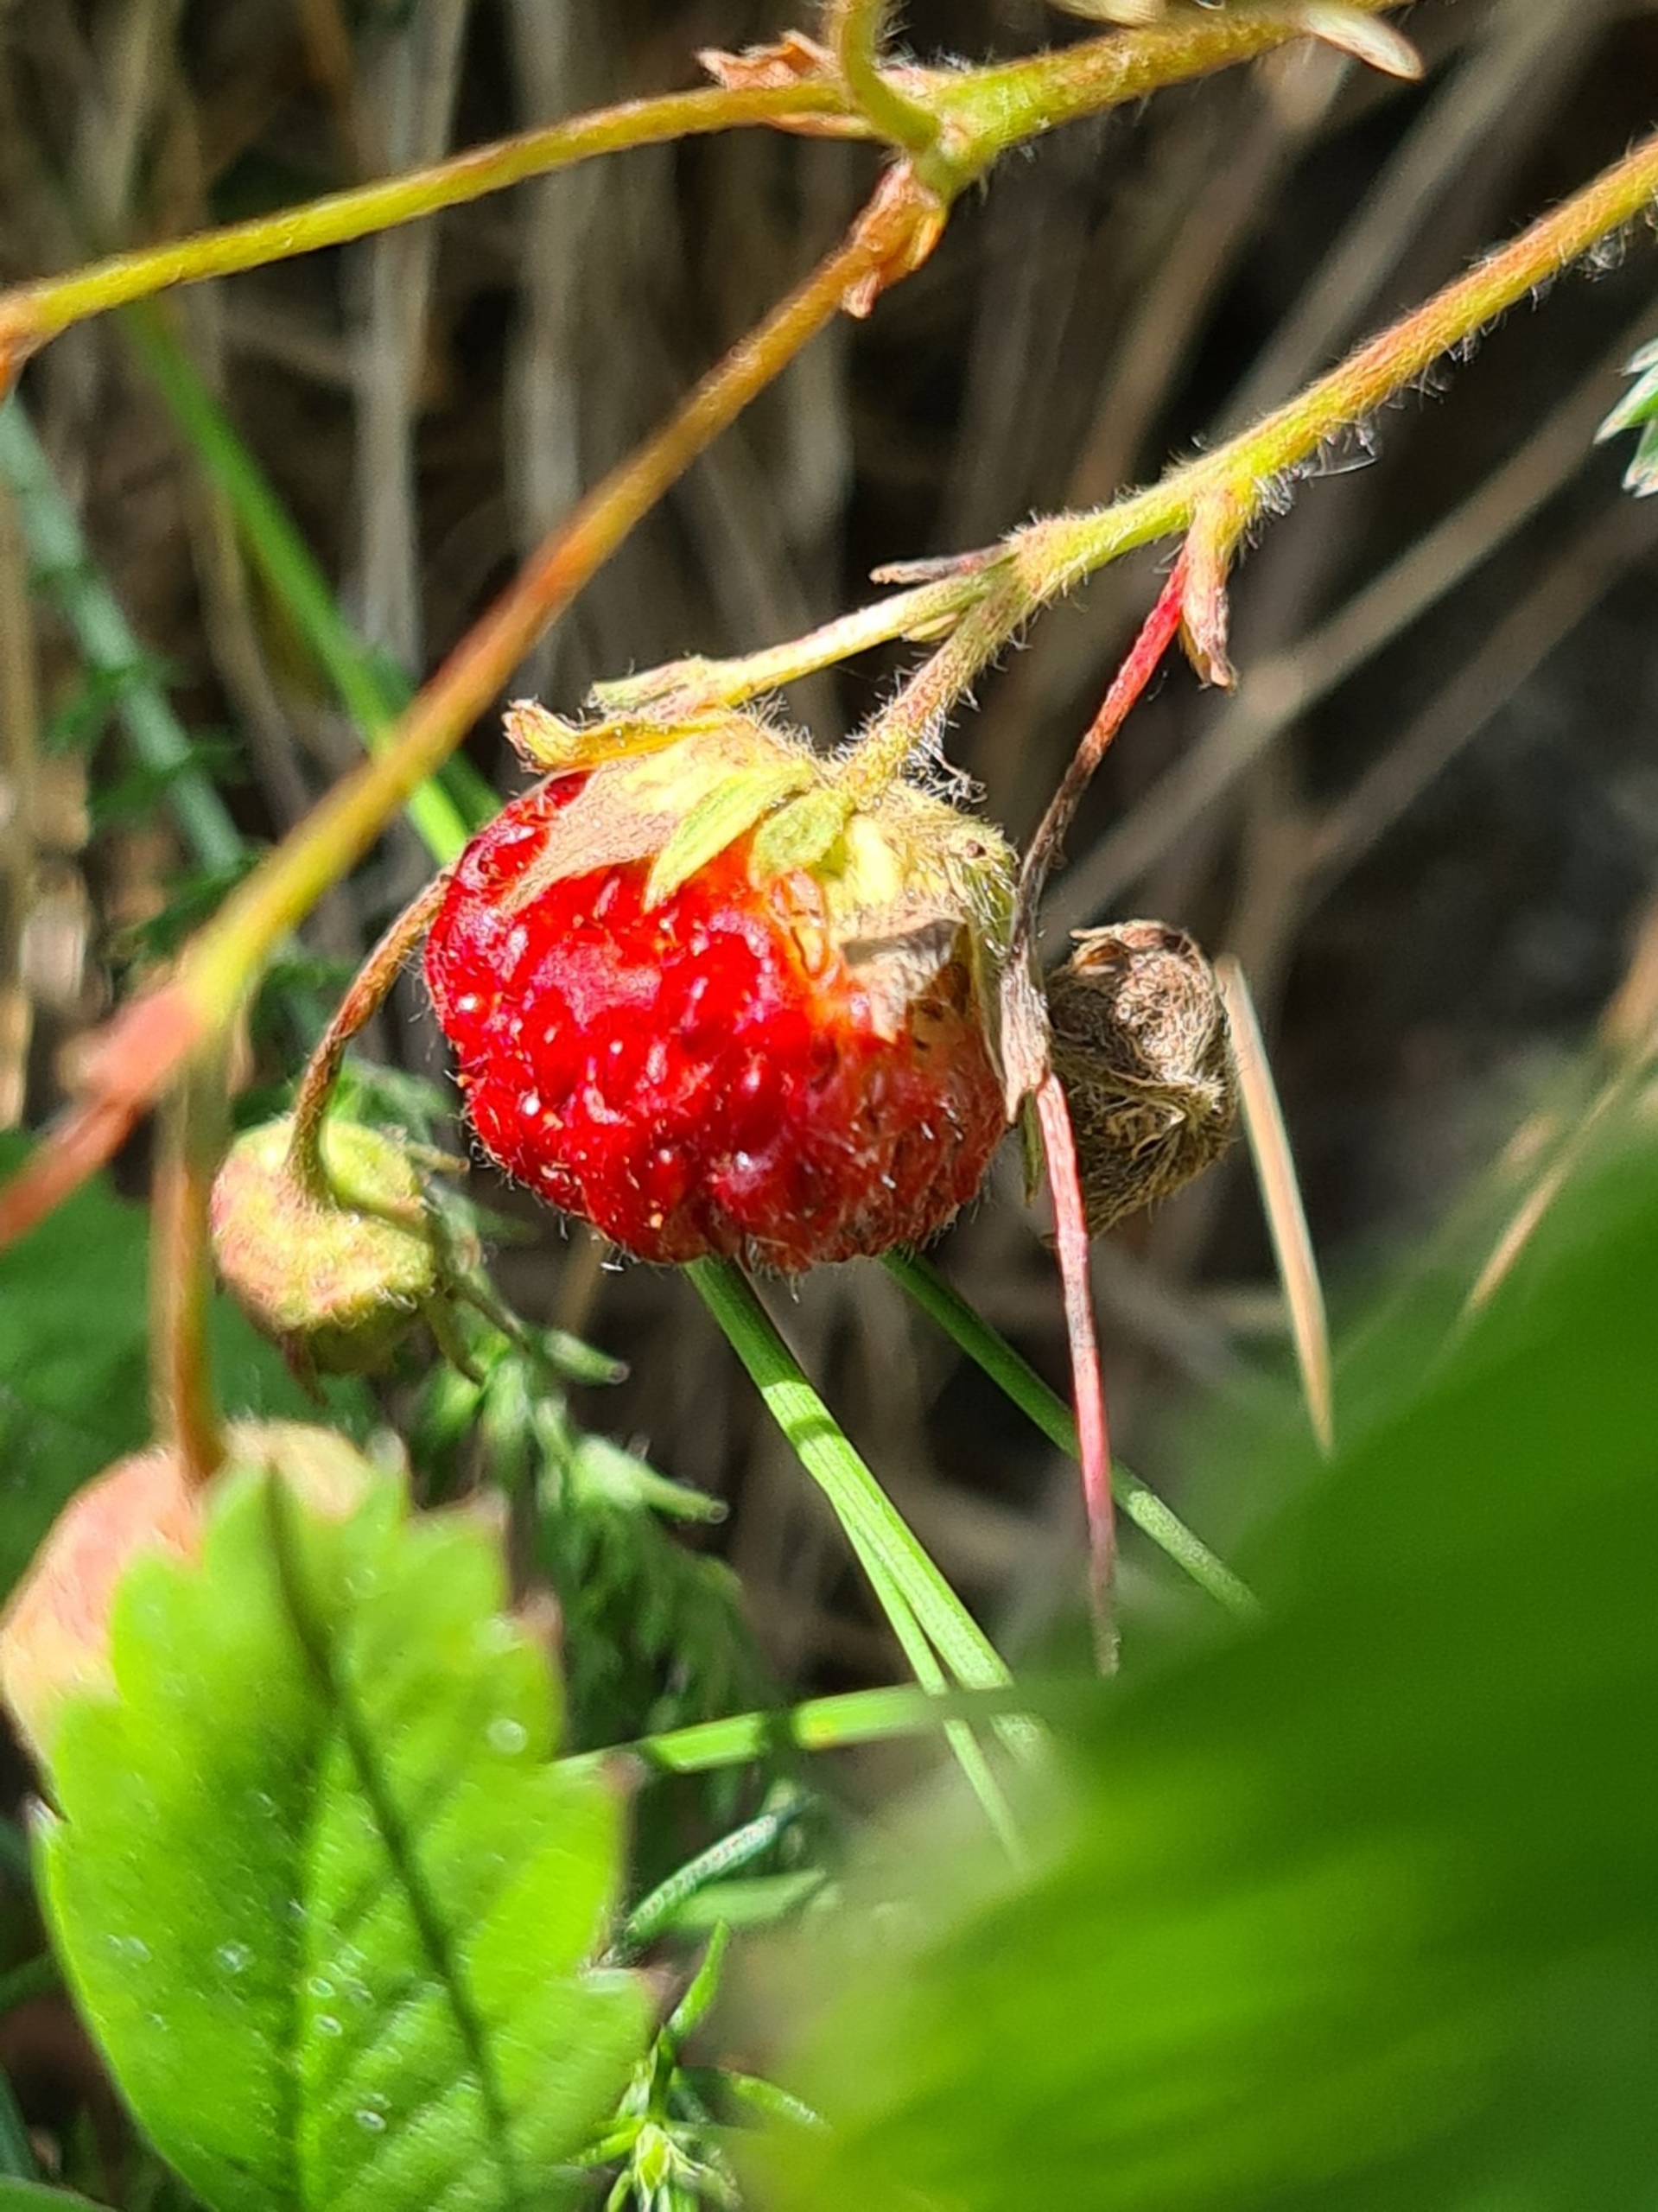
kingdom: Plantae
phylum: Tracheophyta
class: Magnoliopsida
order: Rosales
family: Rosaceae
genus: Fragaria
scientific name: Fragaria viridis
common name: Bakke-jordbær
